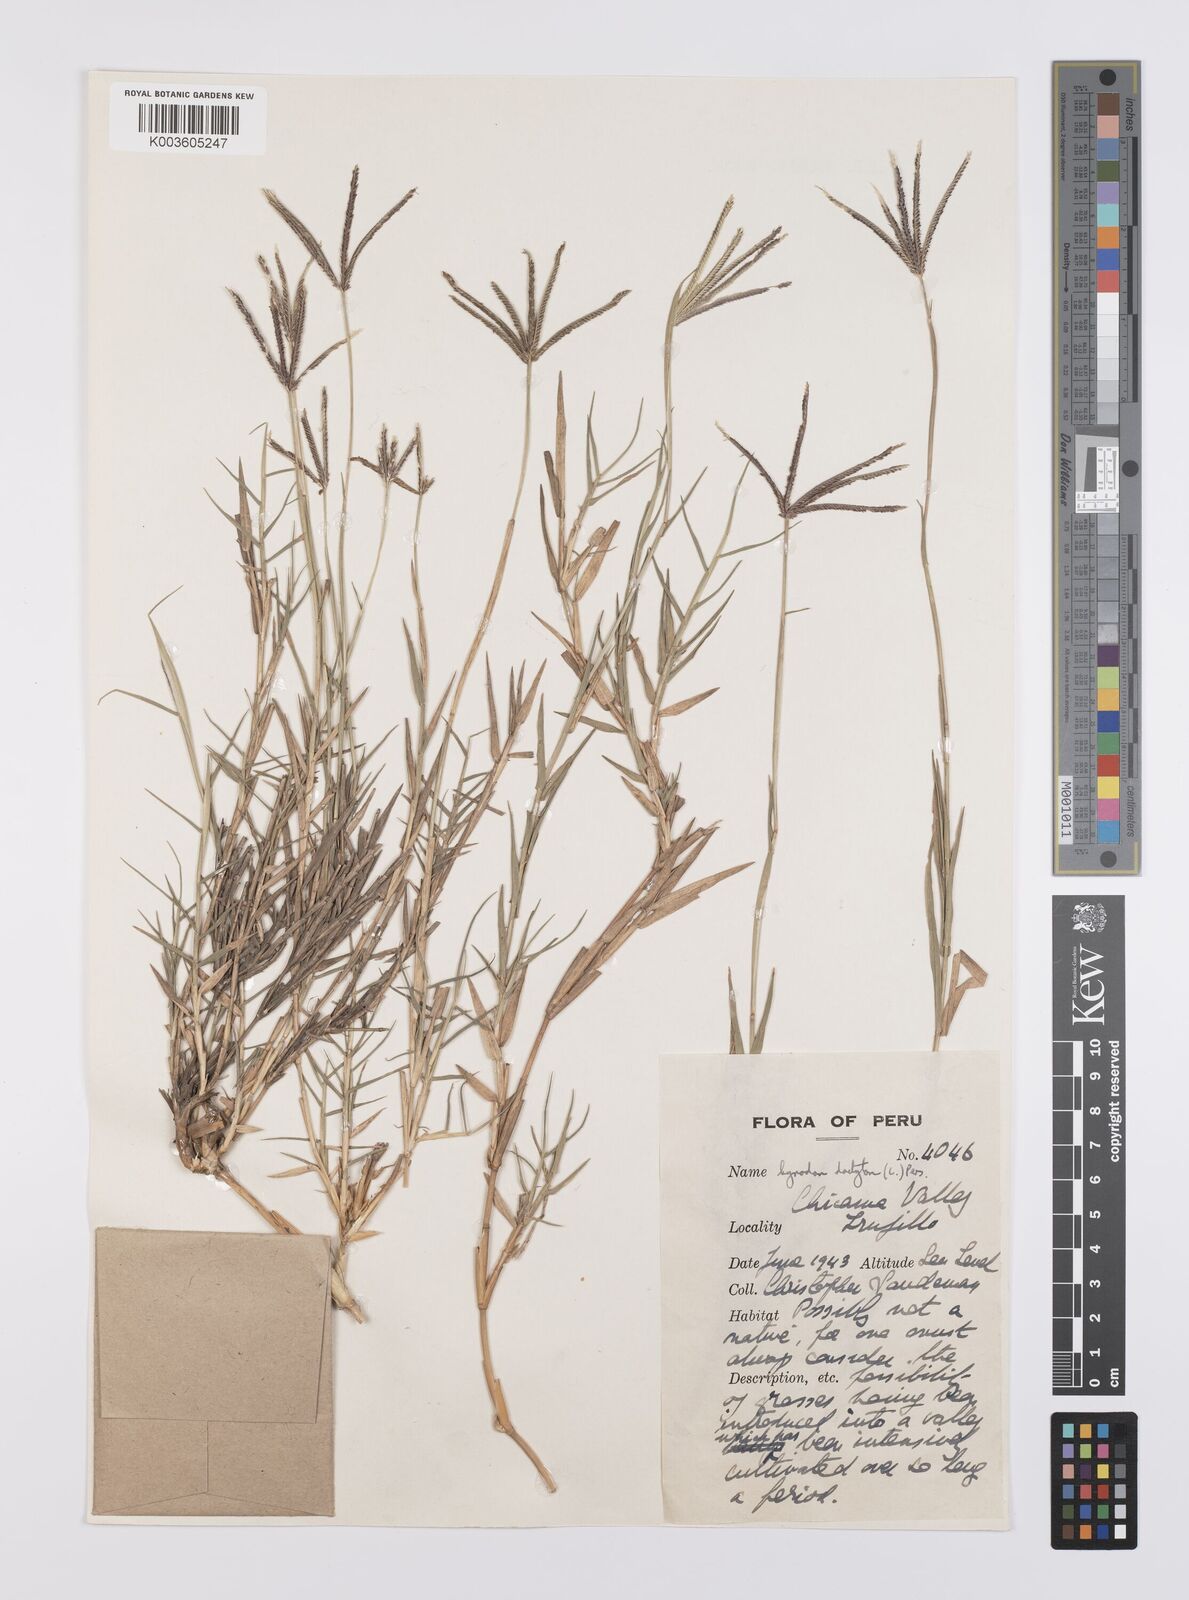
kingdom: Plantae
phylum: Tracheophyta
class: Liliopsida
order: Poales
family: Poaceae
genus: Cynodon
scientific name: Cynodon dactylon
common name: Bermuda grass
